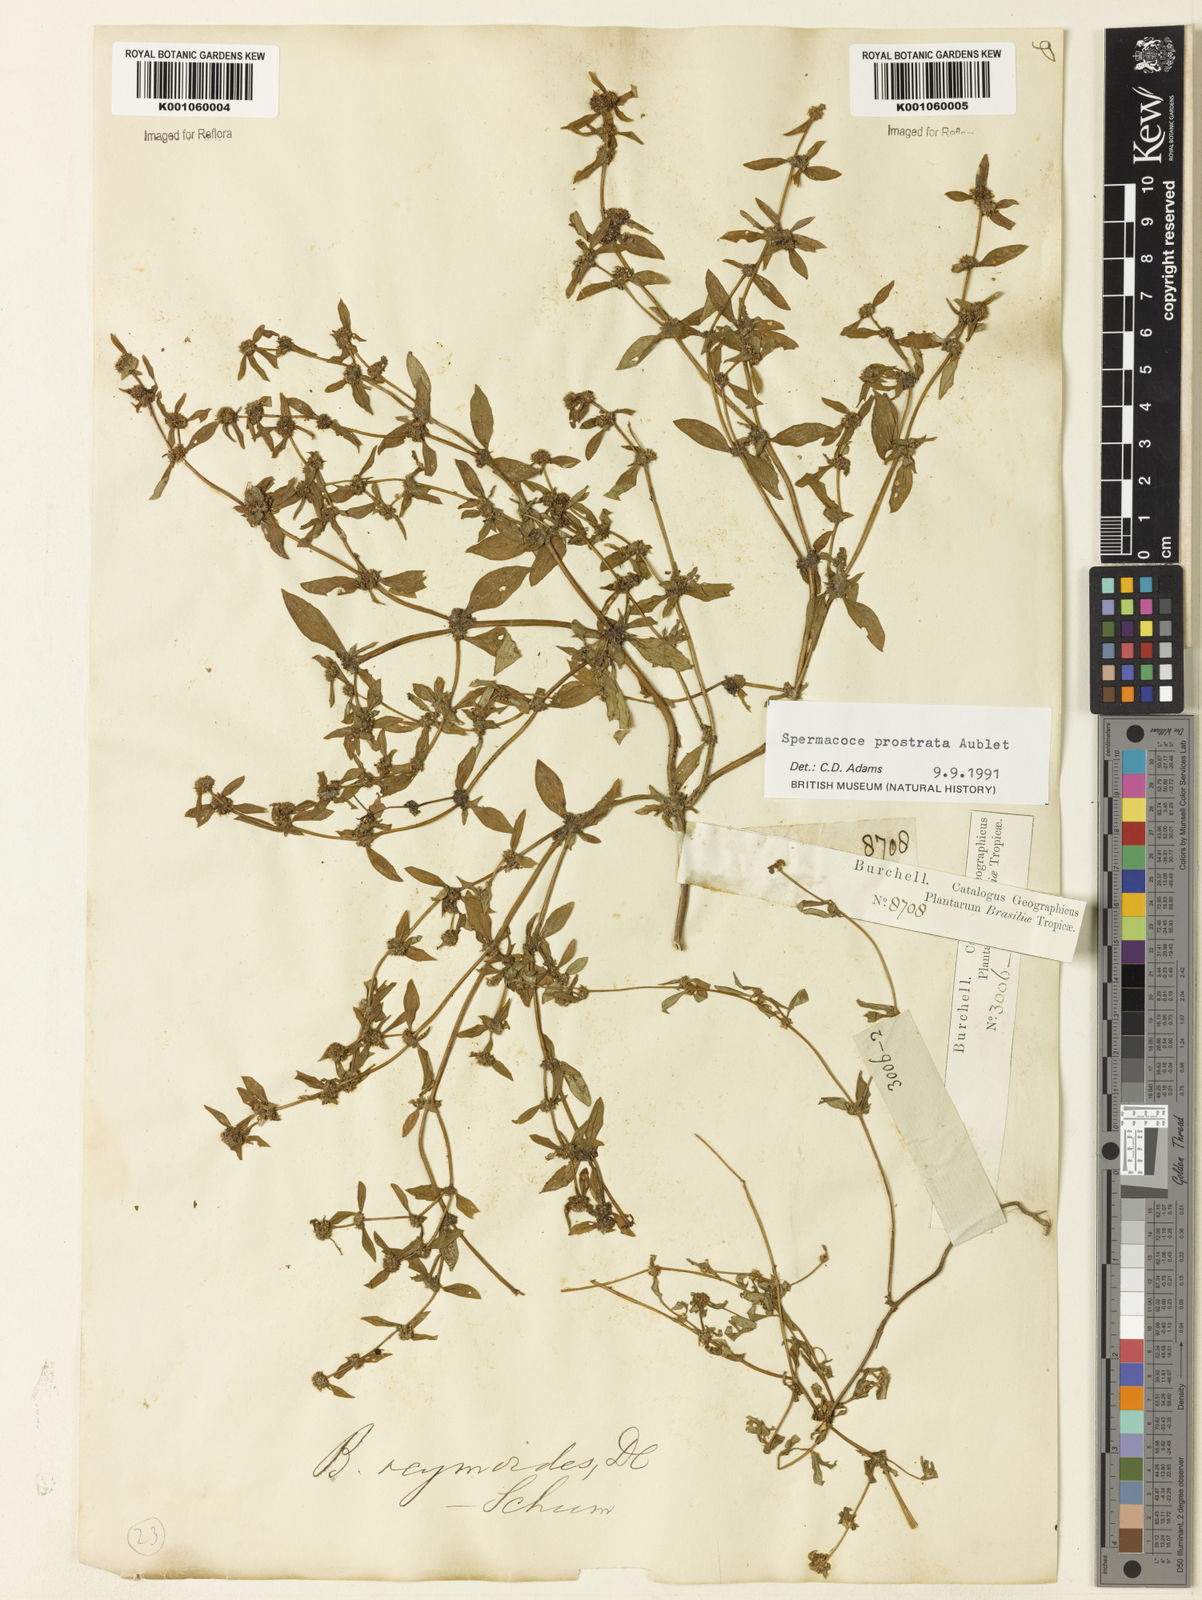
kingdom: Plantae
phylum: Tracheophyta
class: Magnoliopsida
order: Gentianales
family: Rubiaceae
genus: Spermacoce
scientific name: Spermacoce
